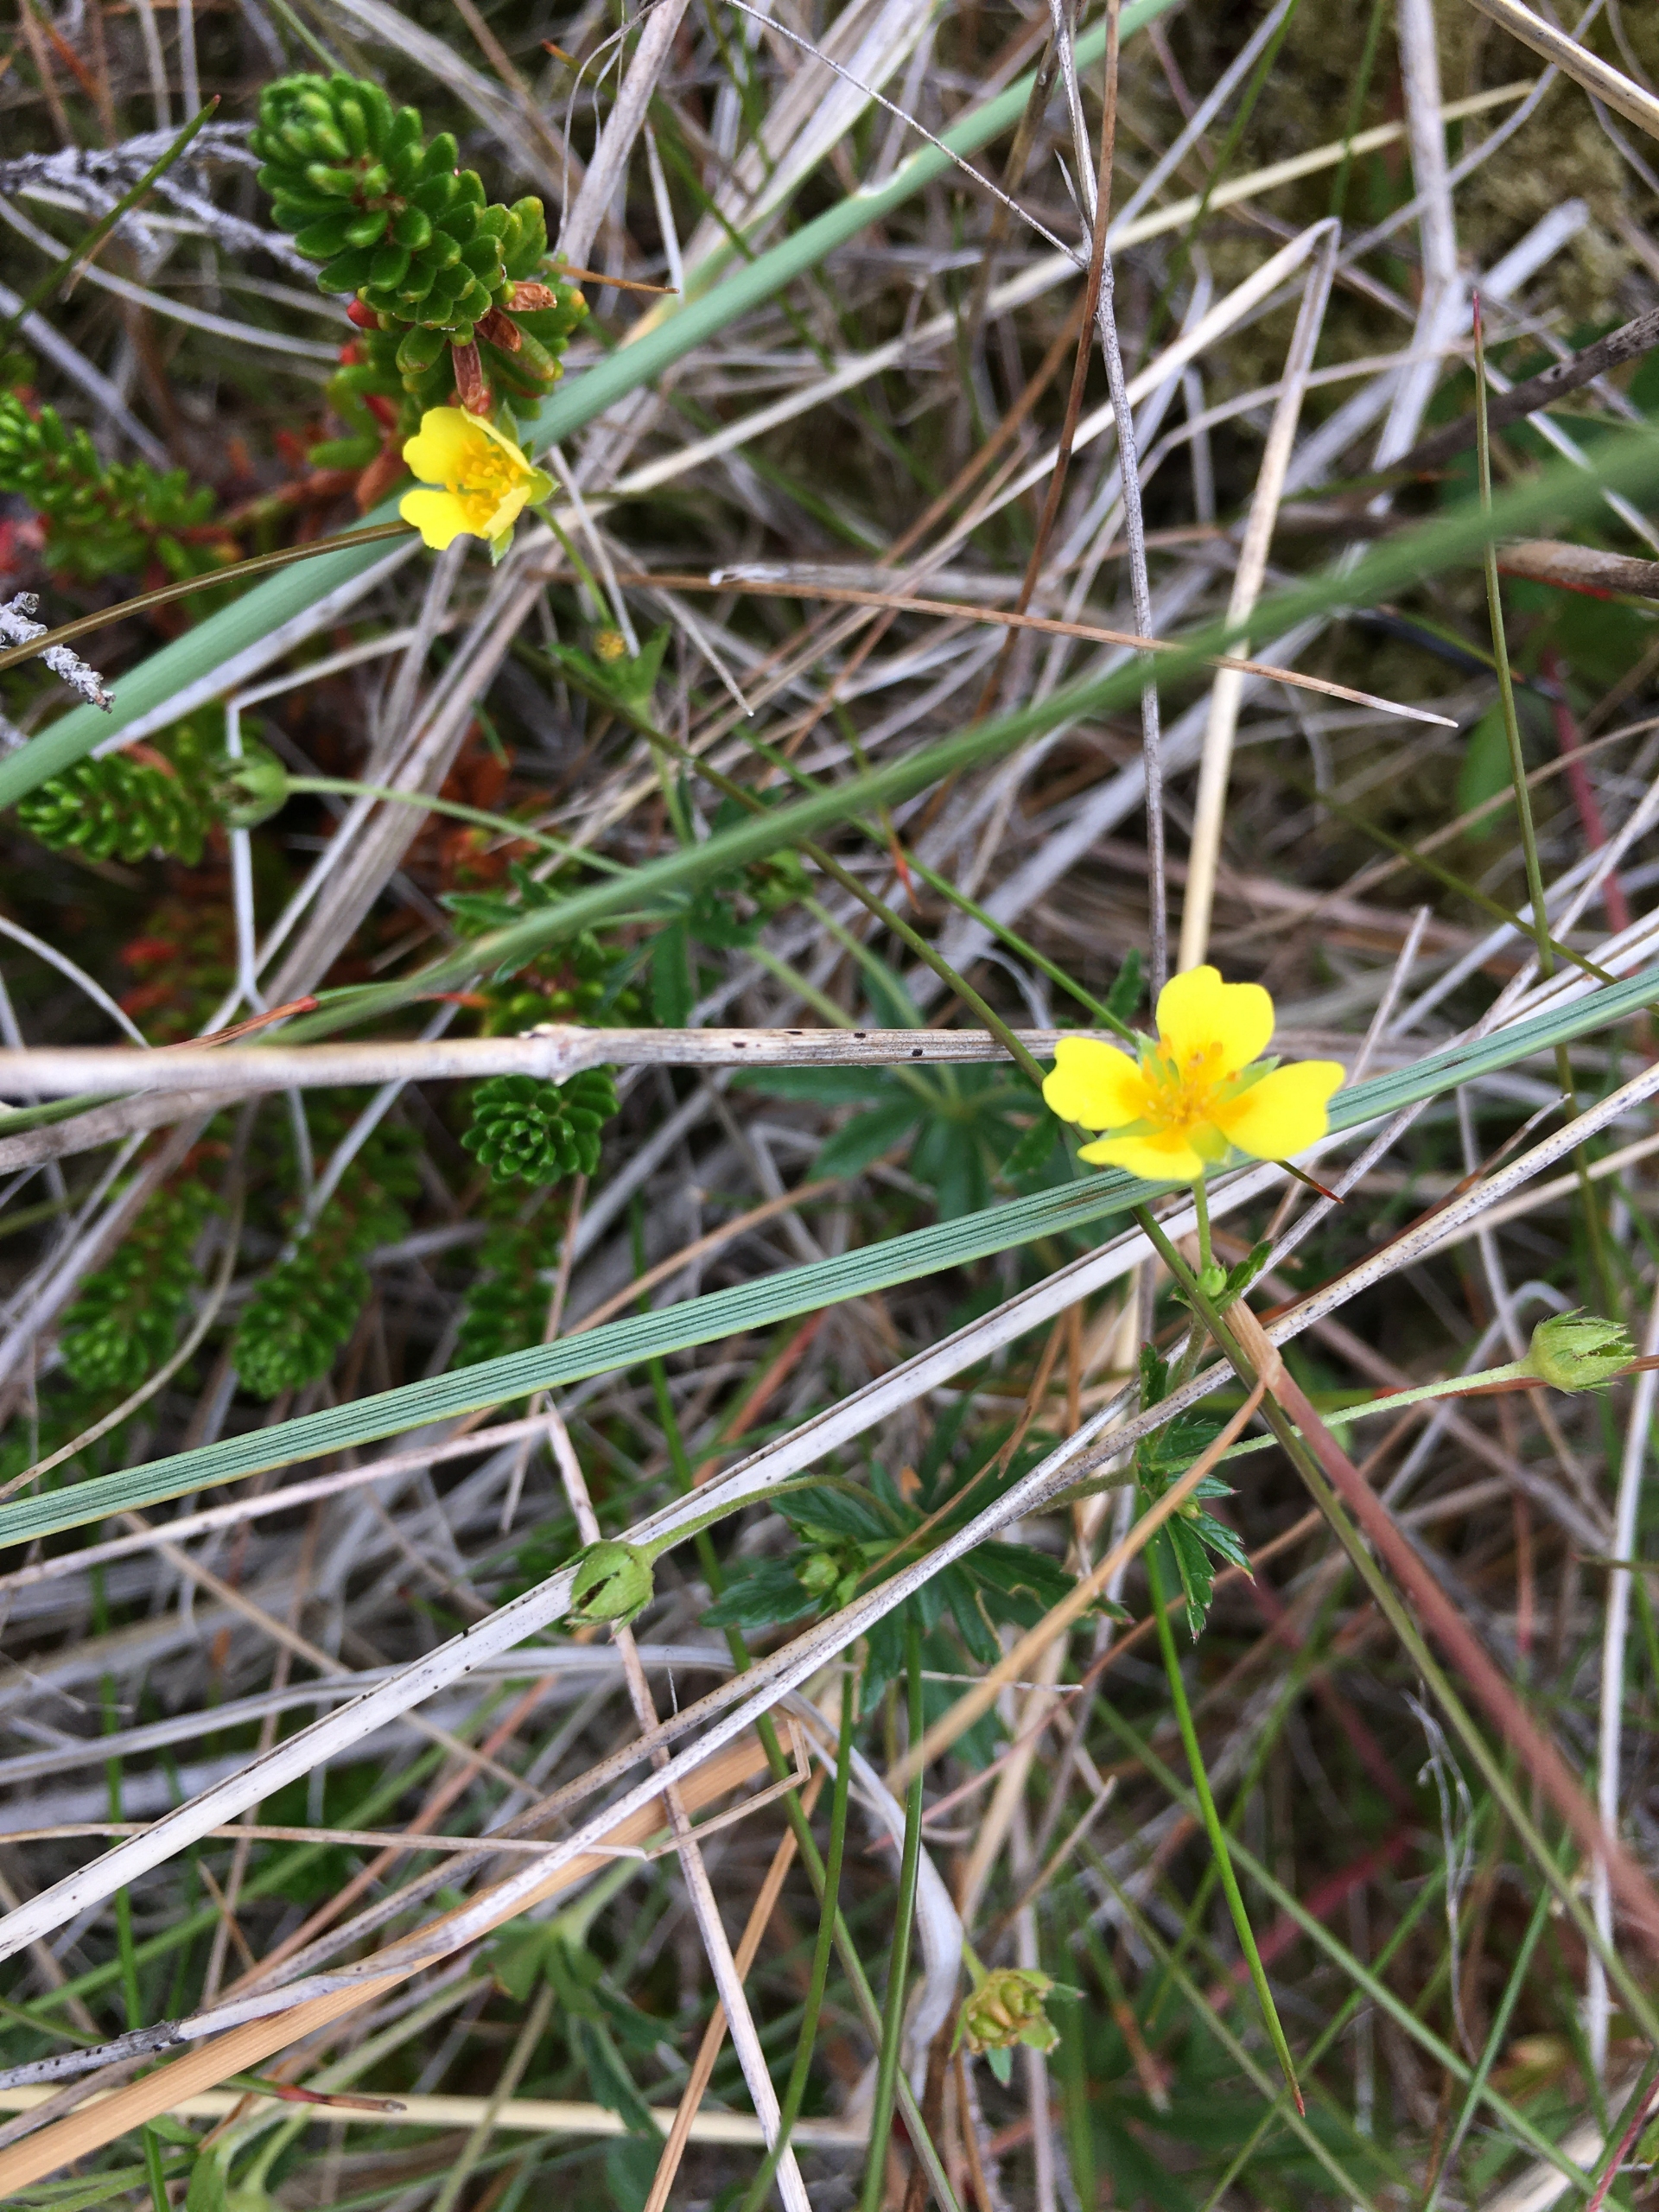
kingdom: Plantae
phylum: Tracheophyta
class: Magnoliopsida
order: Rosales
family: Rosaceae
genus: Potentilla
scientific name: Potentilla erecta
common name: Tormentil
